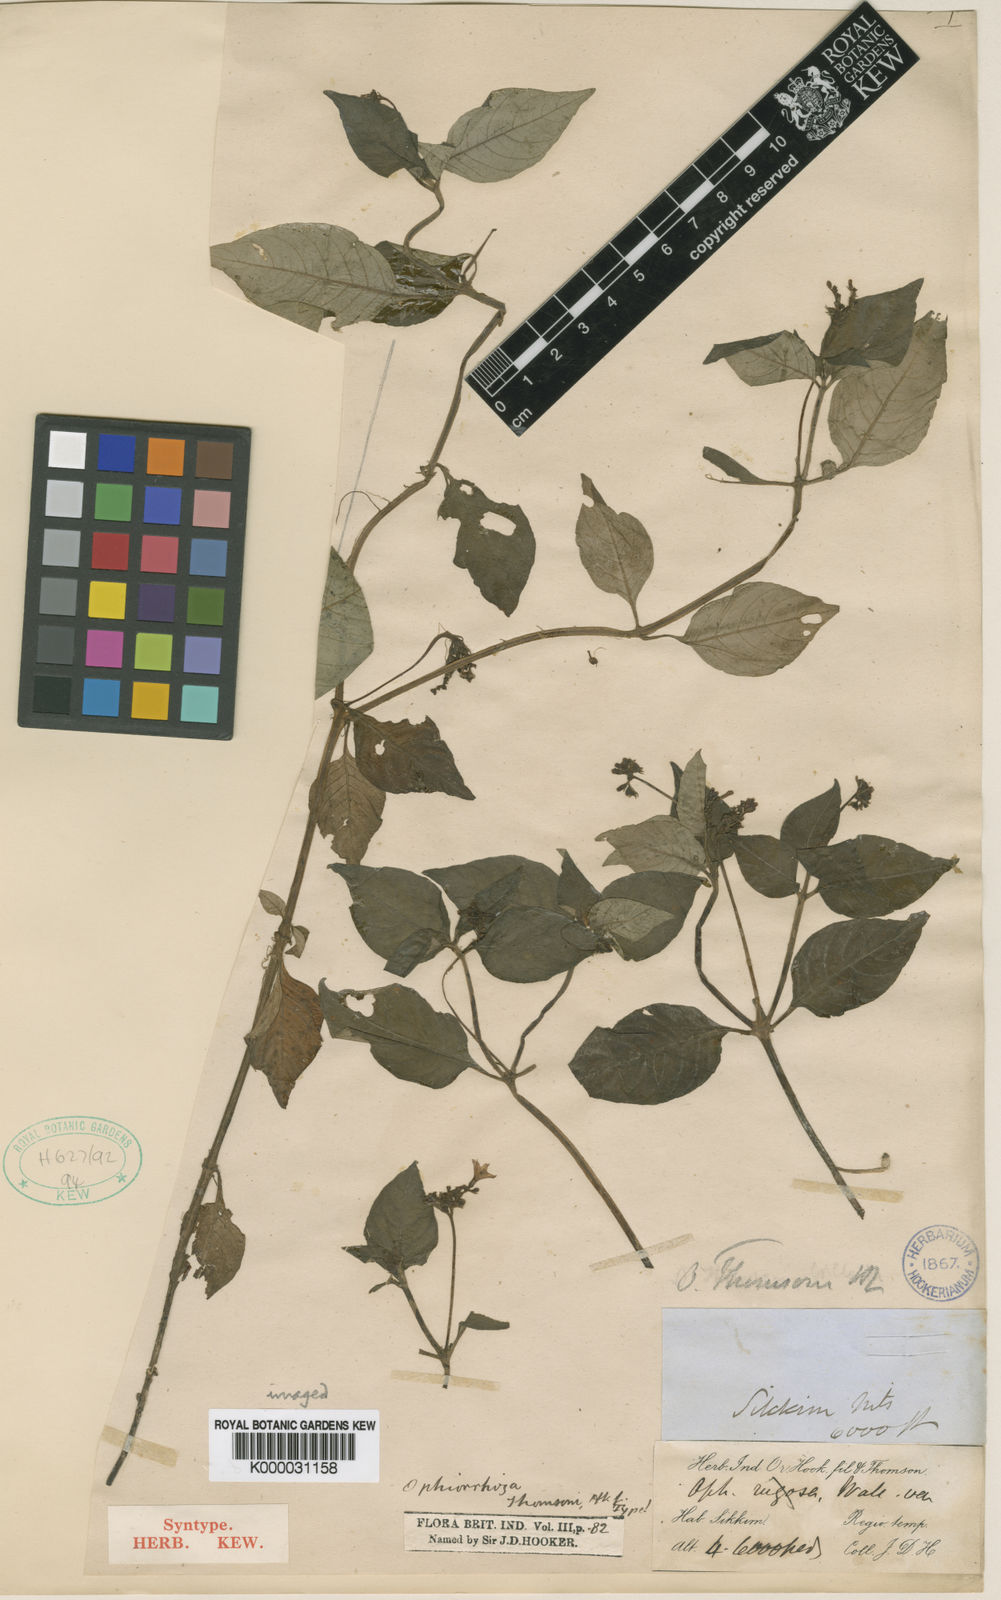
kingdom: Plantae
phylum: Tracheophyta
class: Magnoliopsida
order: Gentianales
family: Rubiaceae
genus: Ophiorrhiza
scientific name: Ophiorrhiza
